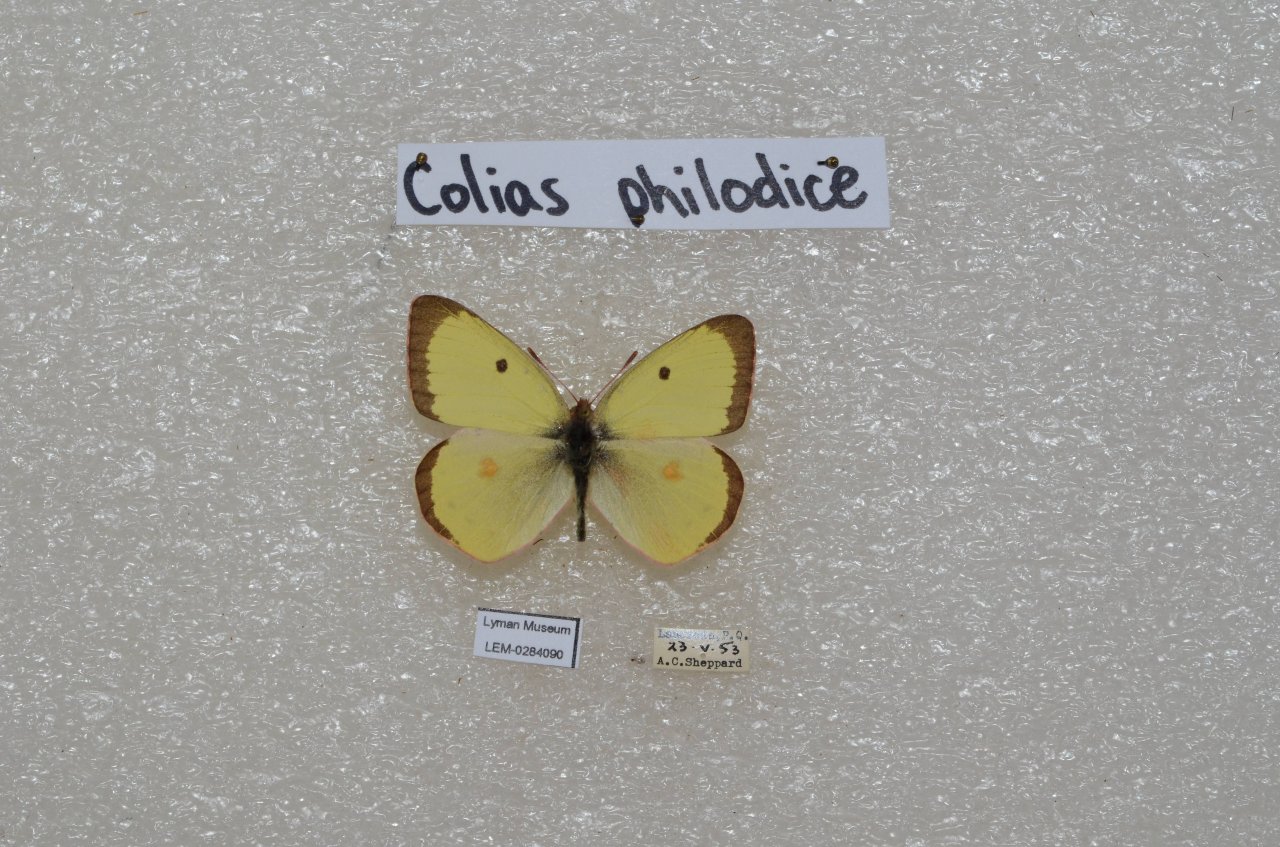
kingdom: Animalia
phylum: Arthropoda
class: Insecta
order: Lepidoptera
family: Pieridae
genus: Colias
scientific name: Colias philodice
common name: Clouded Sulphur
